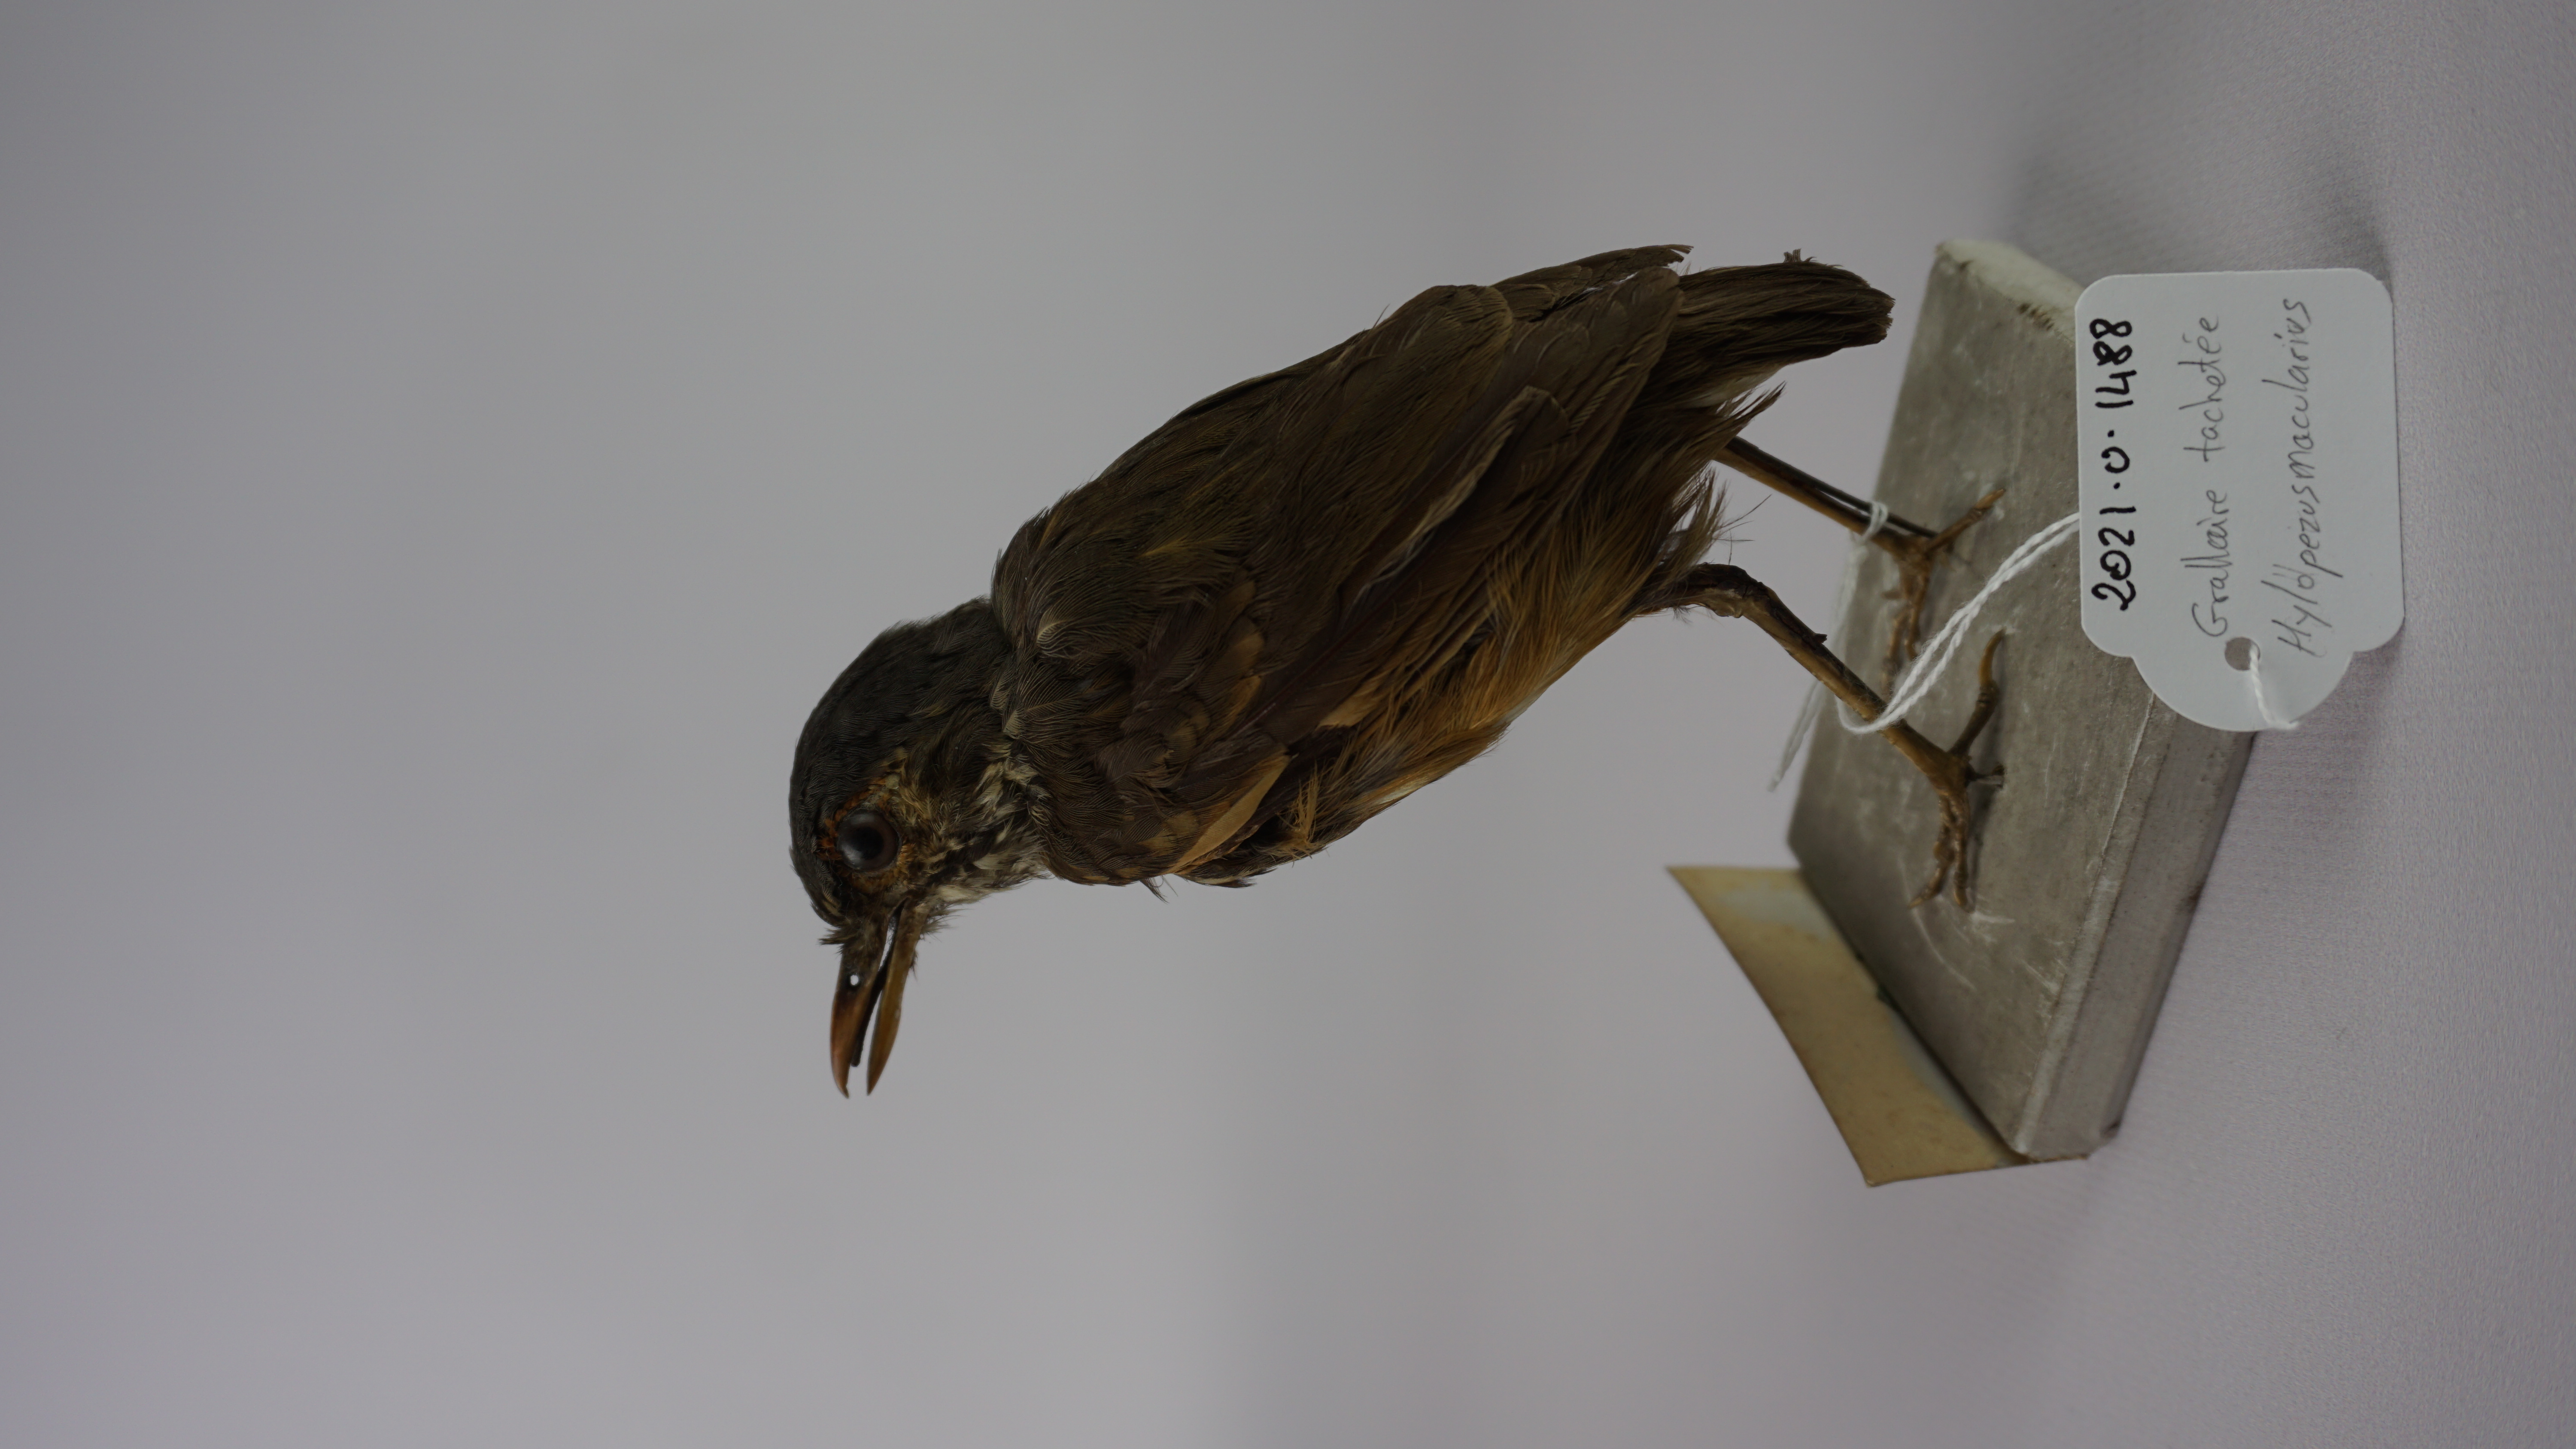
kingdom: Animalia
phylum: Chordata
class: Aves
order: Passeriformes
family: Grallariidae
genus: Hylopezus
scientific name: Hylopezus macularius
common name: Spotted antpitta
